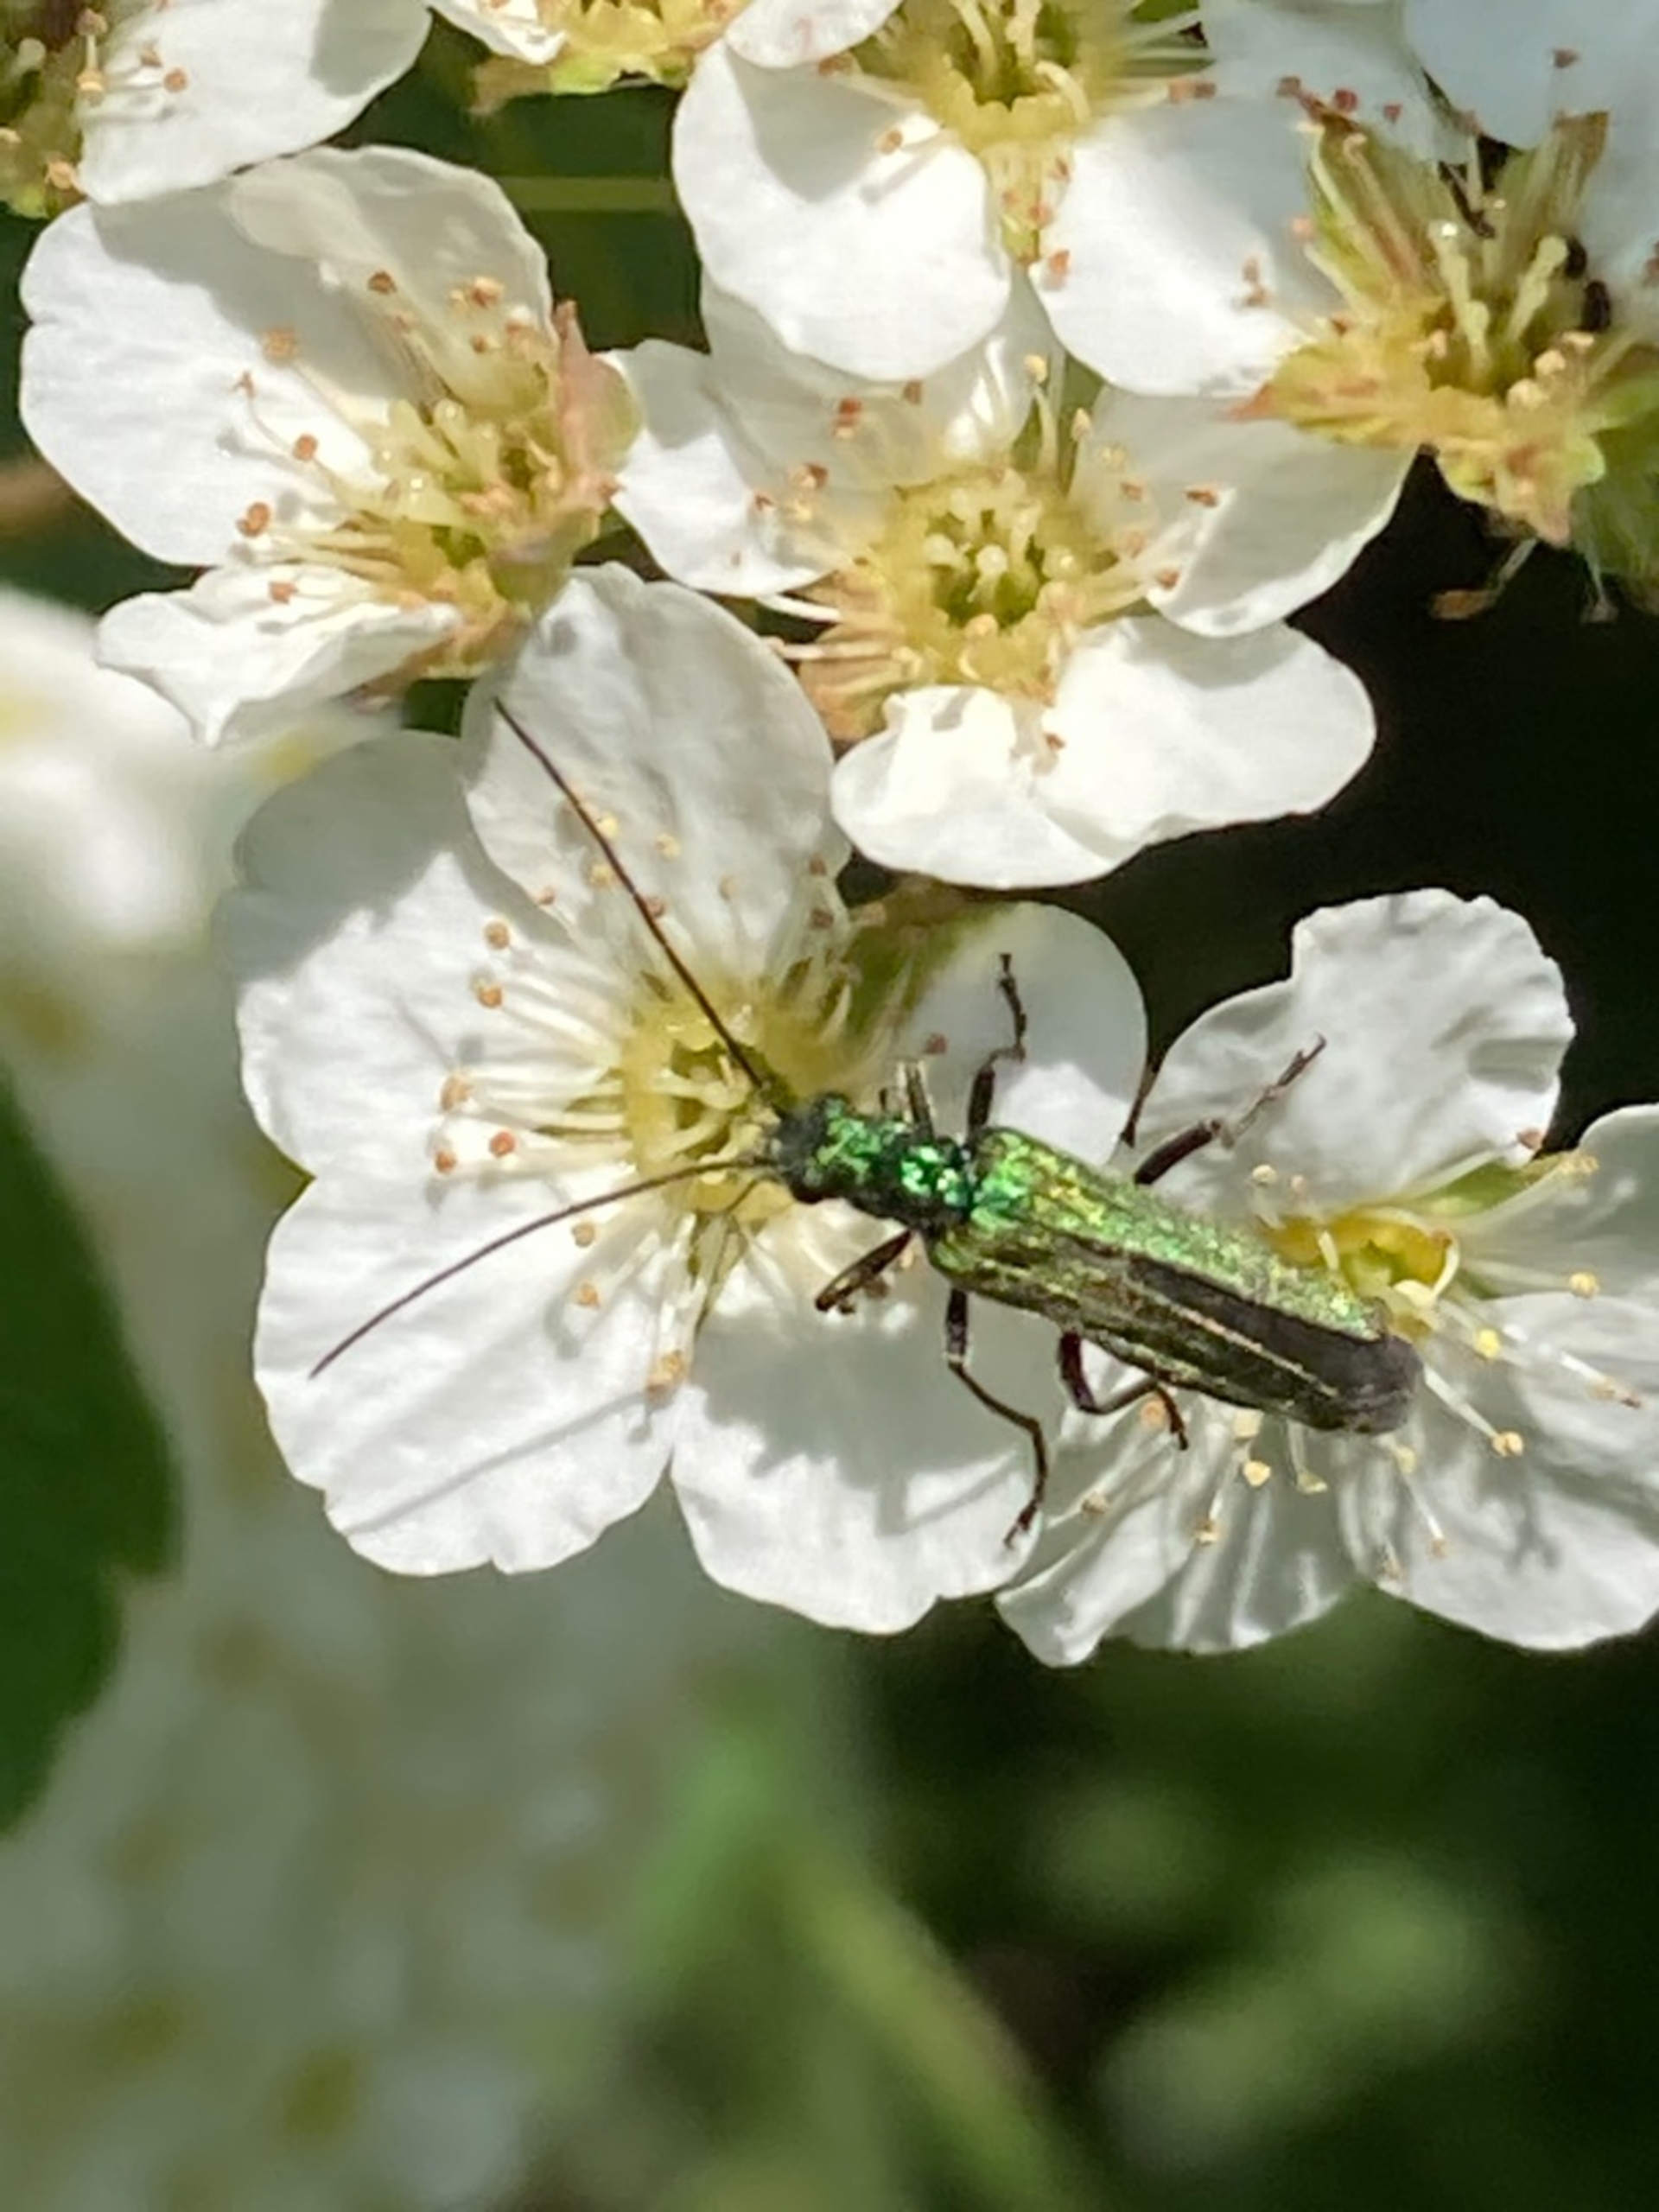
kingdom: Animalia
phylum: Arthropoda
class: Insecta
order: Coleoptera
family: Oedemeridae
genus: Oedemera
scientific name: Oedemera nobilis
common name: Tyklårssolbille
